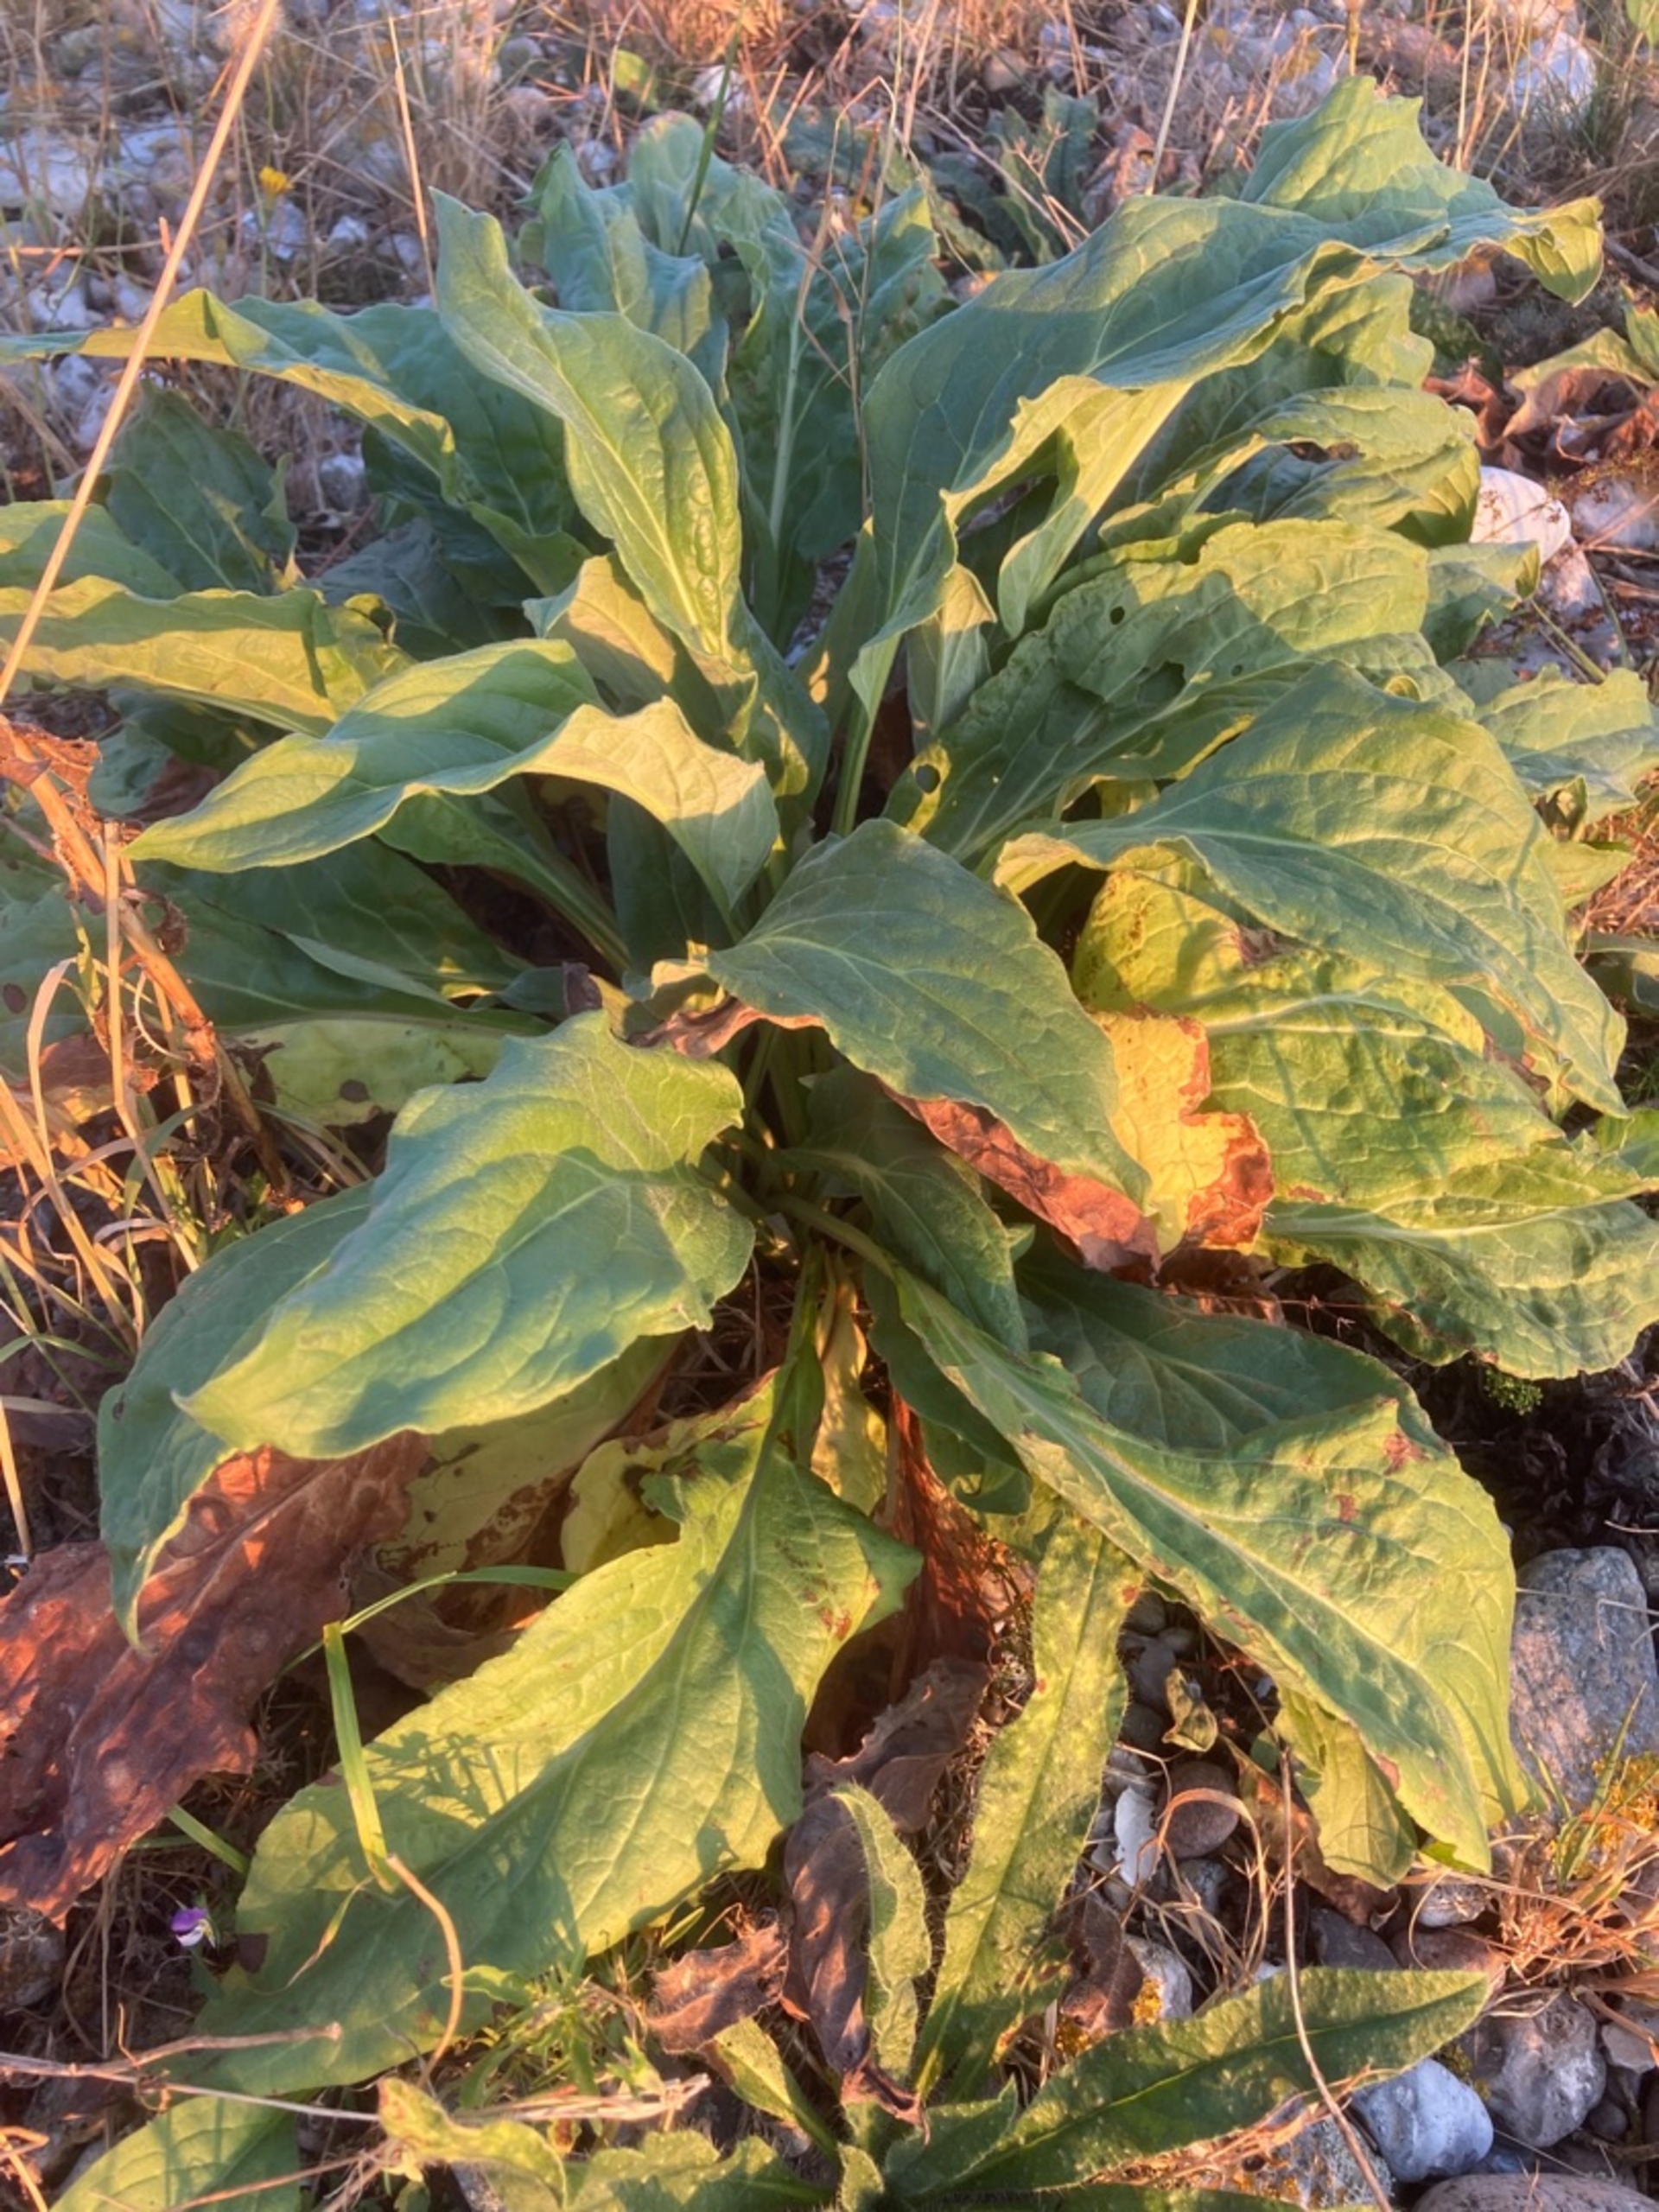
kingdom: Plantae
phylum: Tracheophyta
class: Magnoliopsida
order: Boraginales
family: Boraginaceae
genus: Cynoglossum
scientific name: Cynoglossum officinale
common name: Hundetunge
